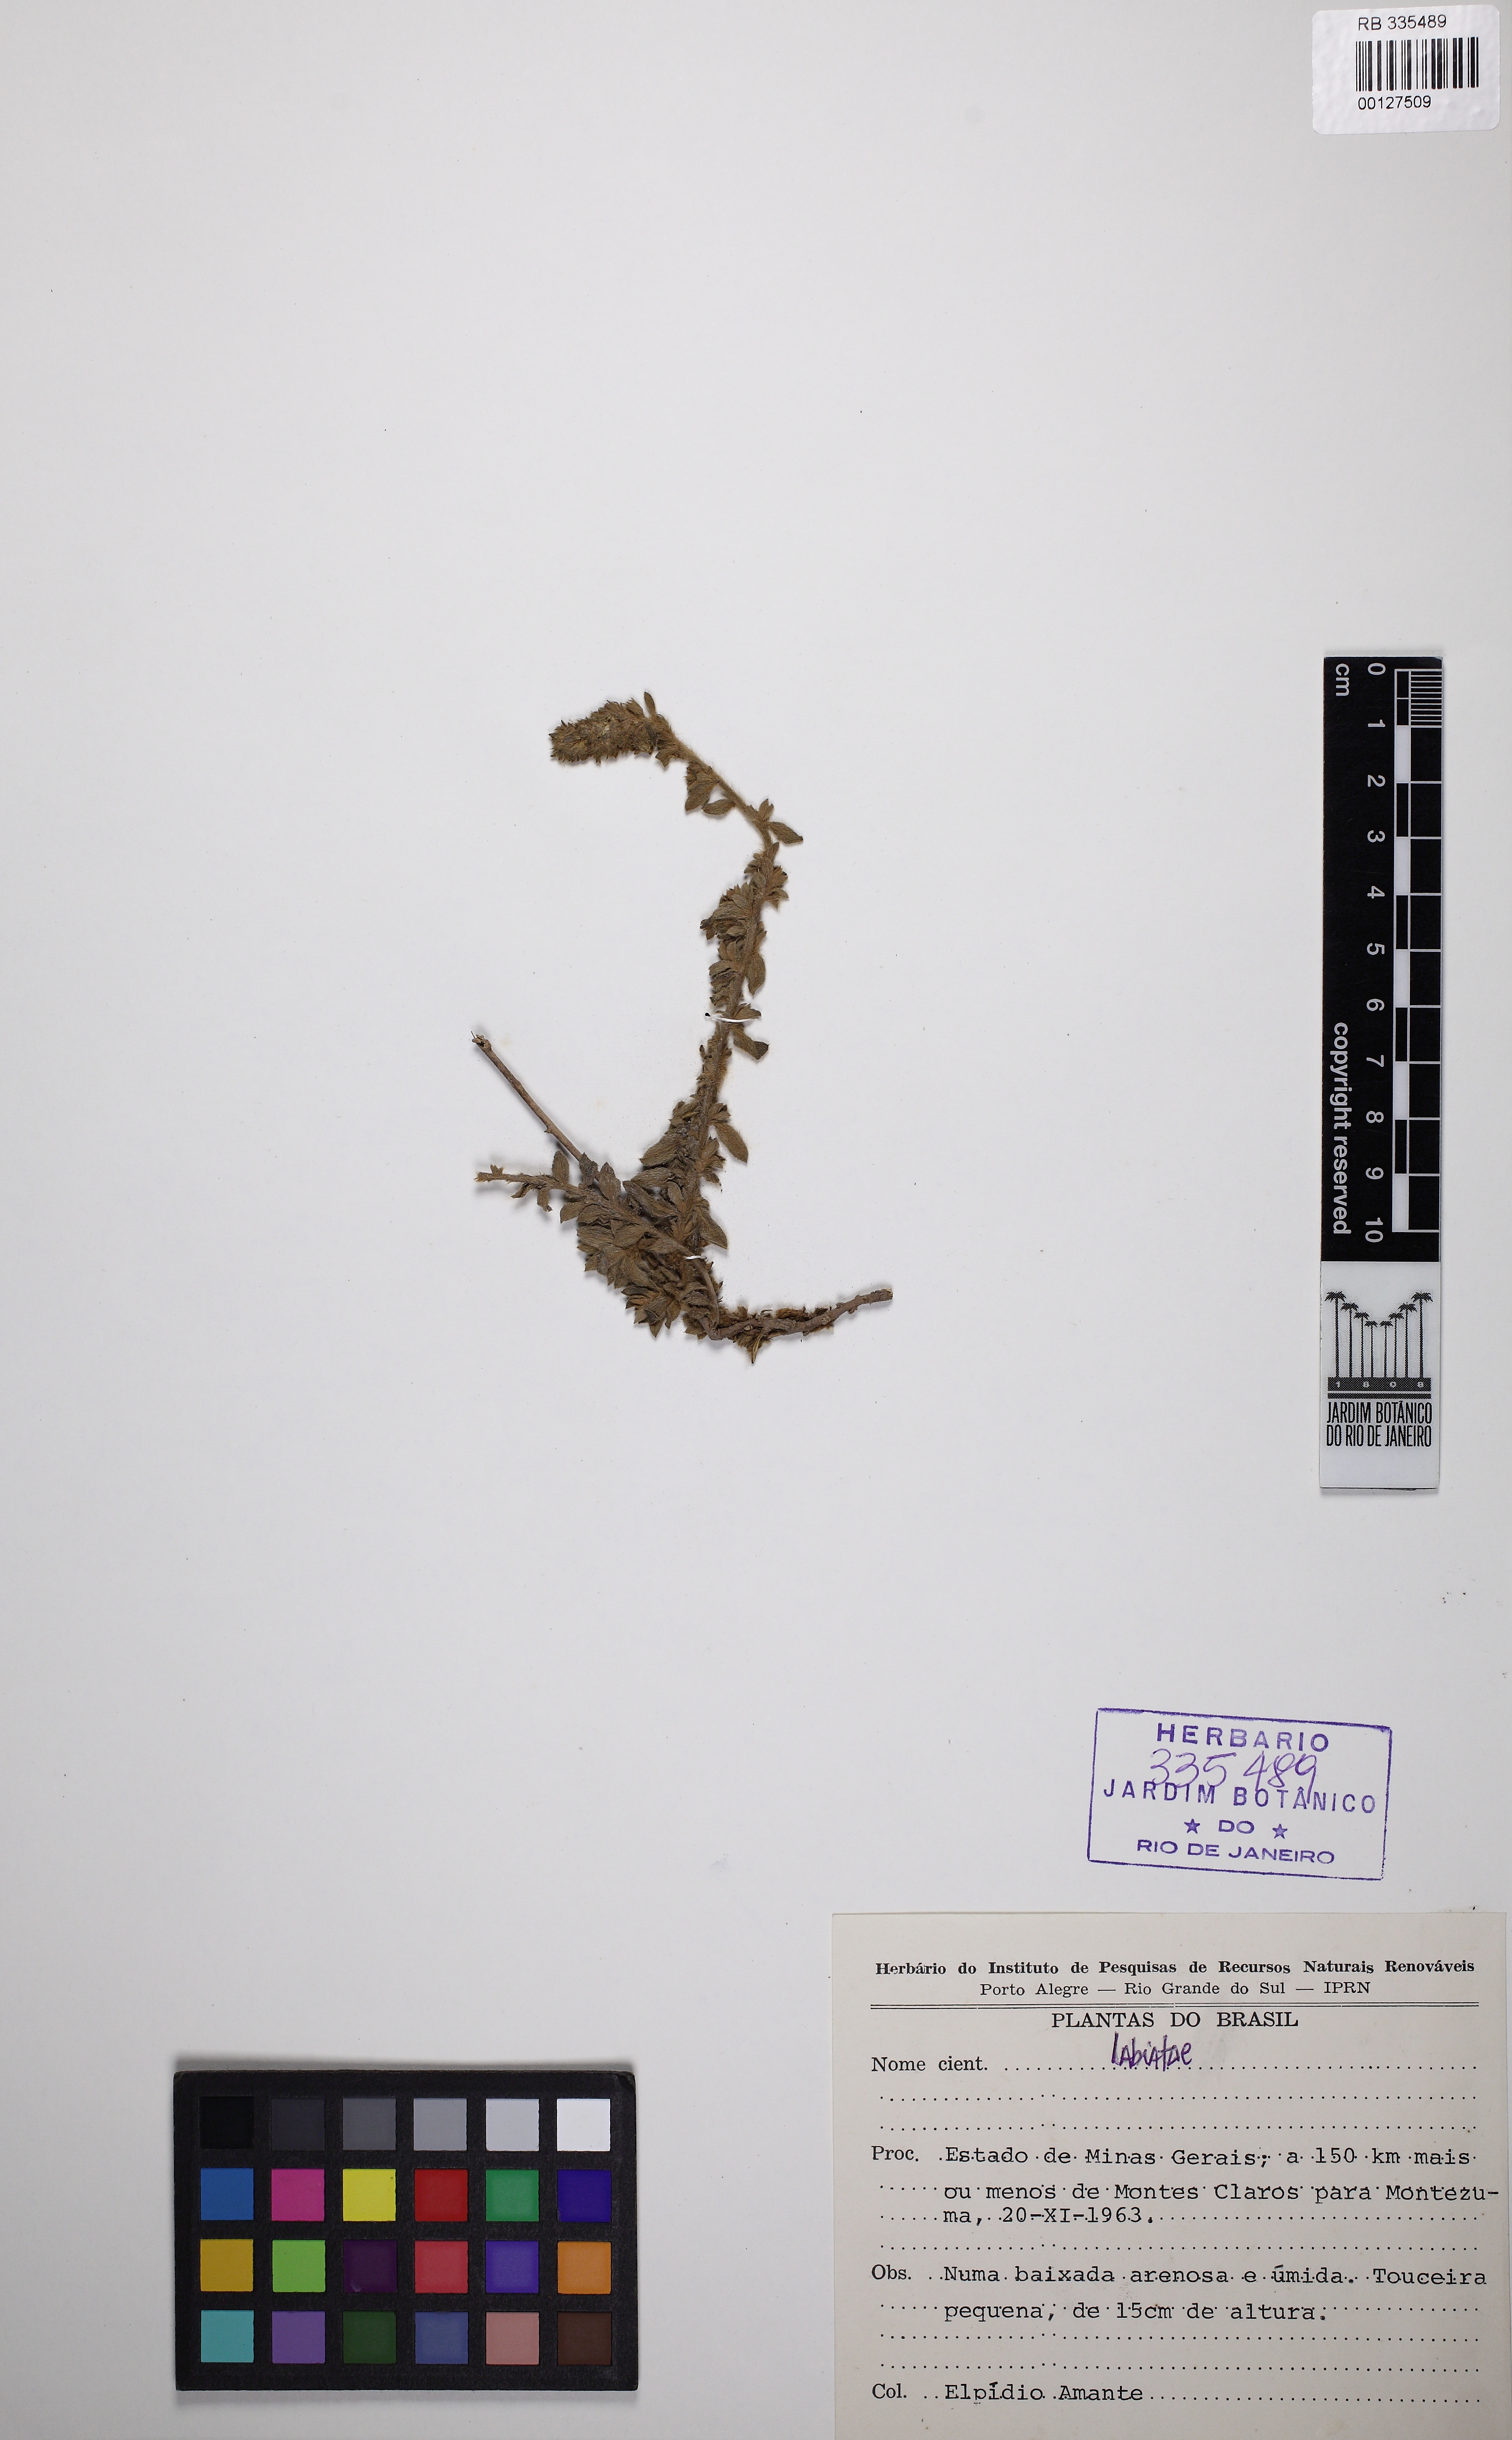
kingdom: Plantae
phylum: Tracheophyta
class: Magnoliopsida
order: Lamiales
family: Lamiaceae
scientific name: Lamiaceae
